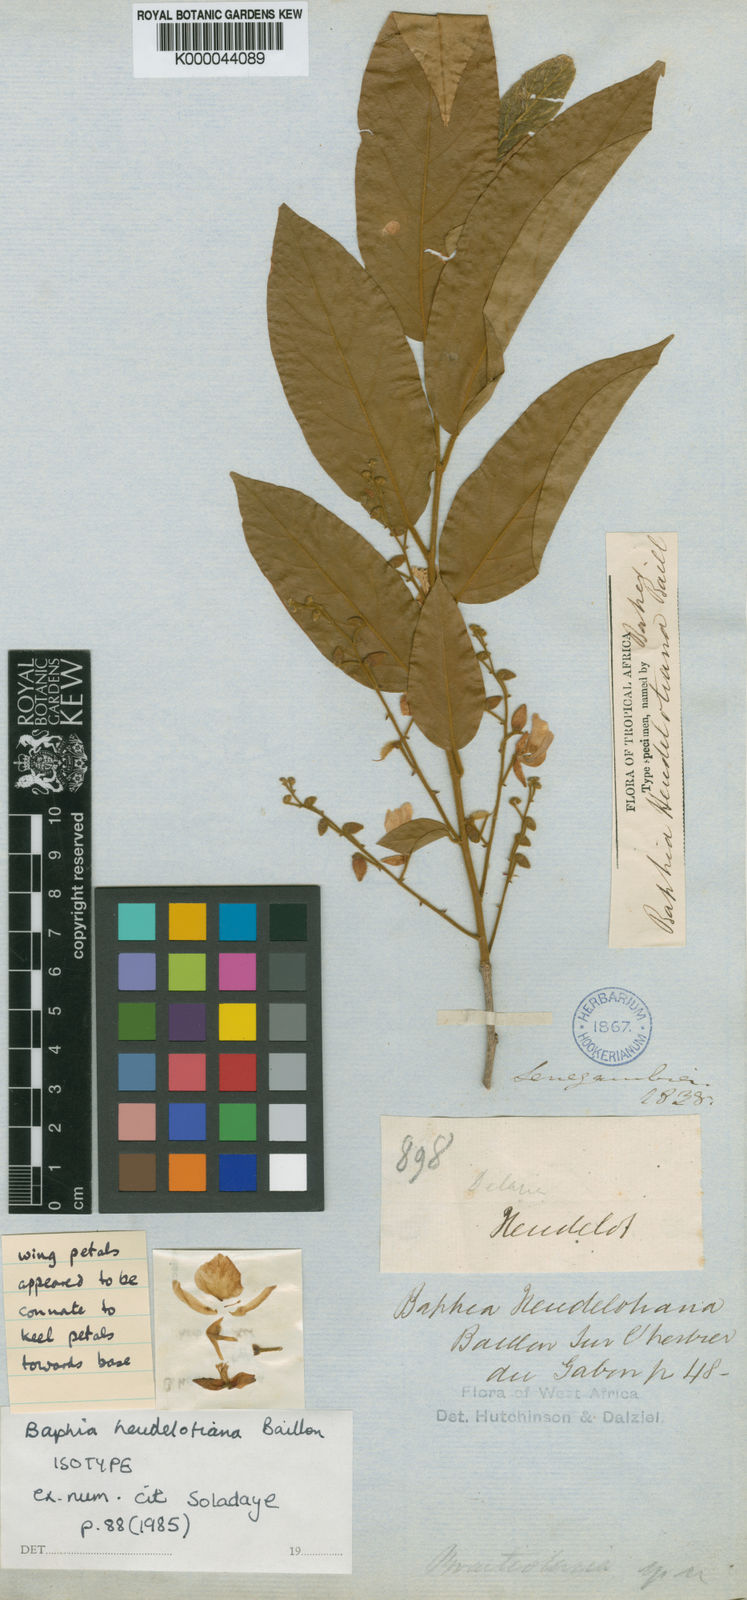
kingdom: Plantae
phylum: Tracheophyta
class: Magnoliopsida
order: Fabales
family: Fabaceae
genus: Baphia
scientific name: Baphia heudelotiana
